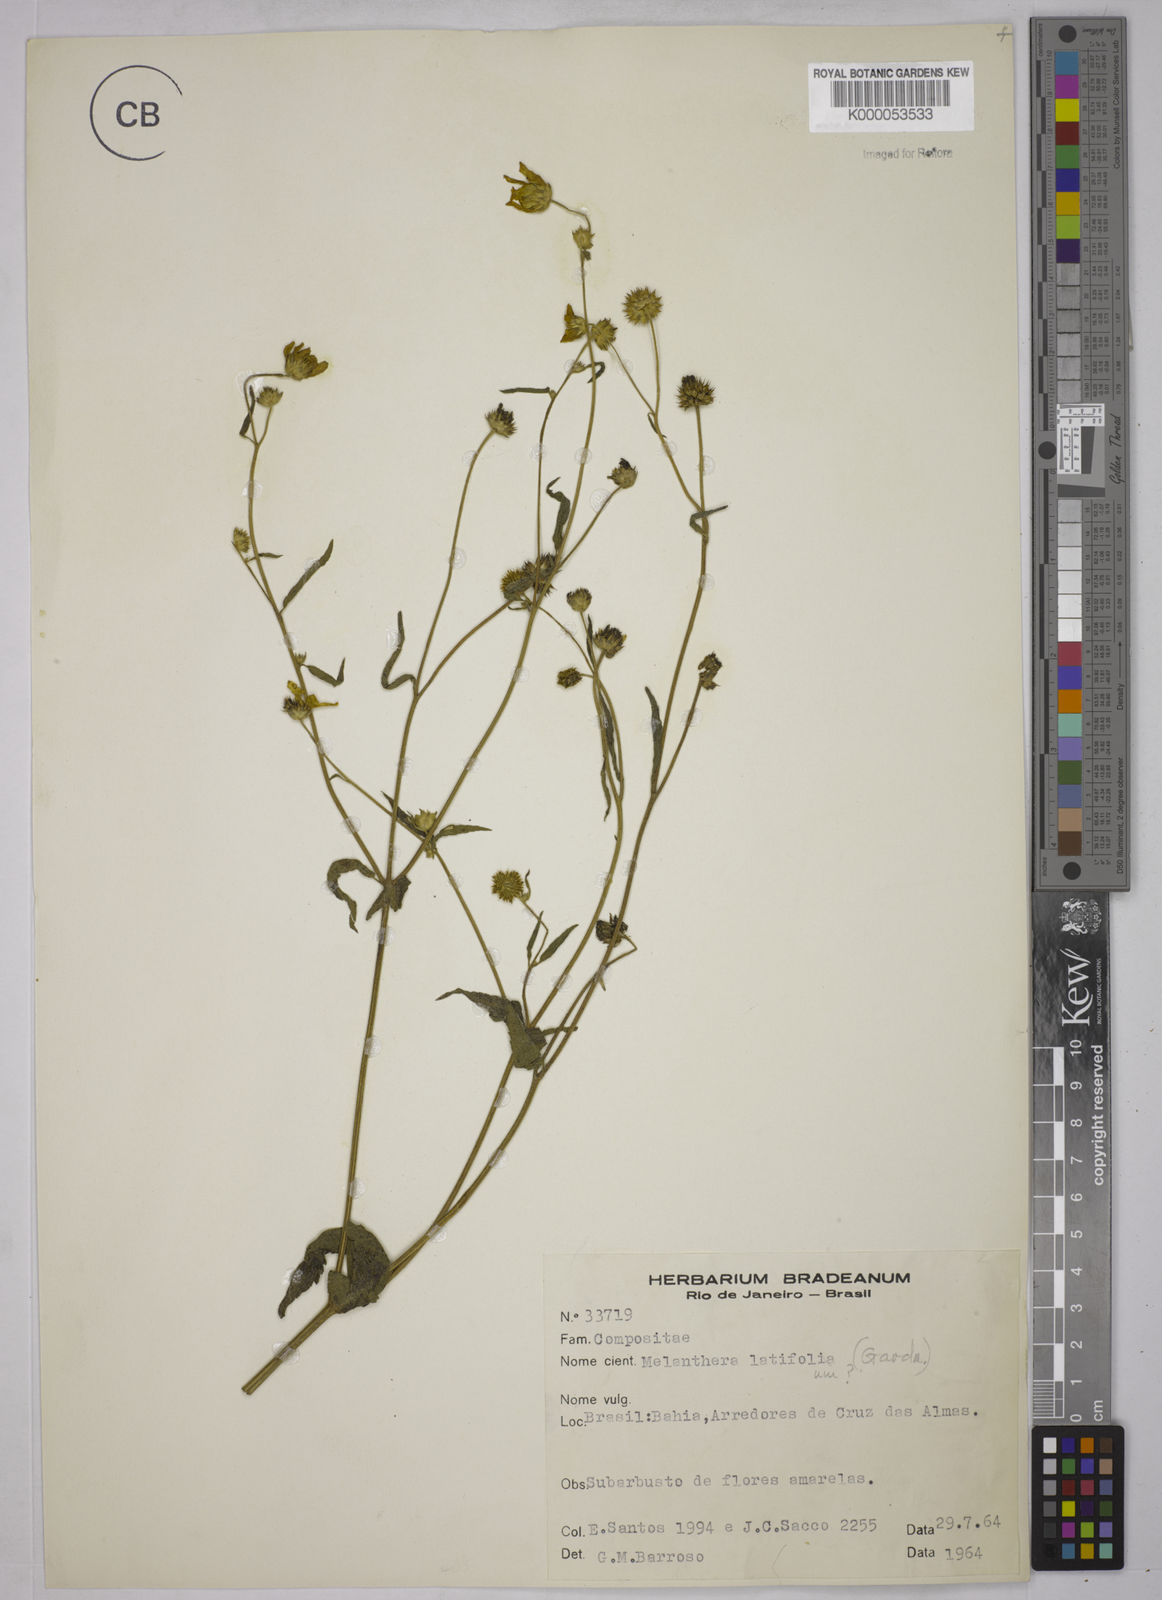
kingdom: Plantae
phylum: Tracheophyta
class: Magnoliopsida
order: Asterales
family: Asteraceae
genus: Echinocephalum
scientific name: Echinocephalum latifolium
